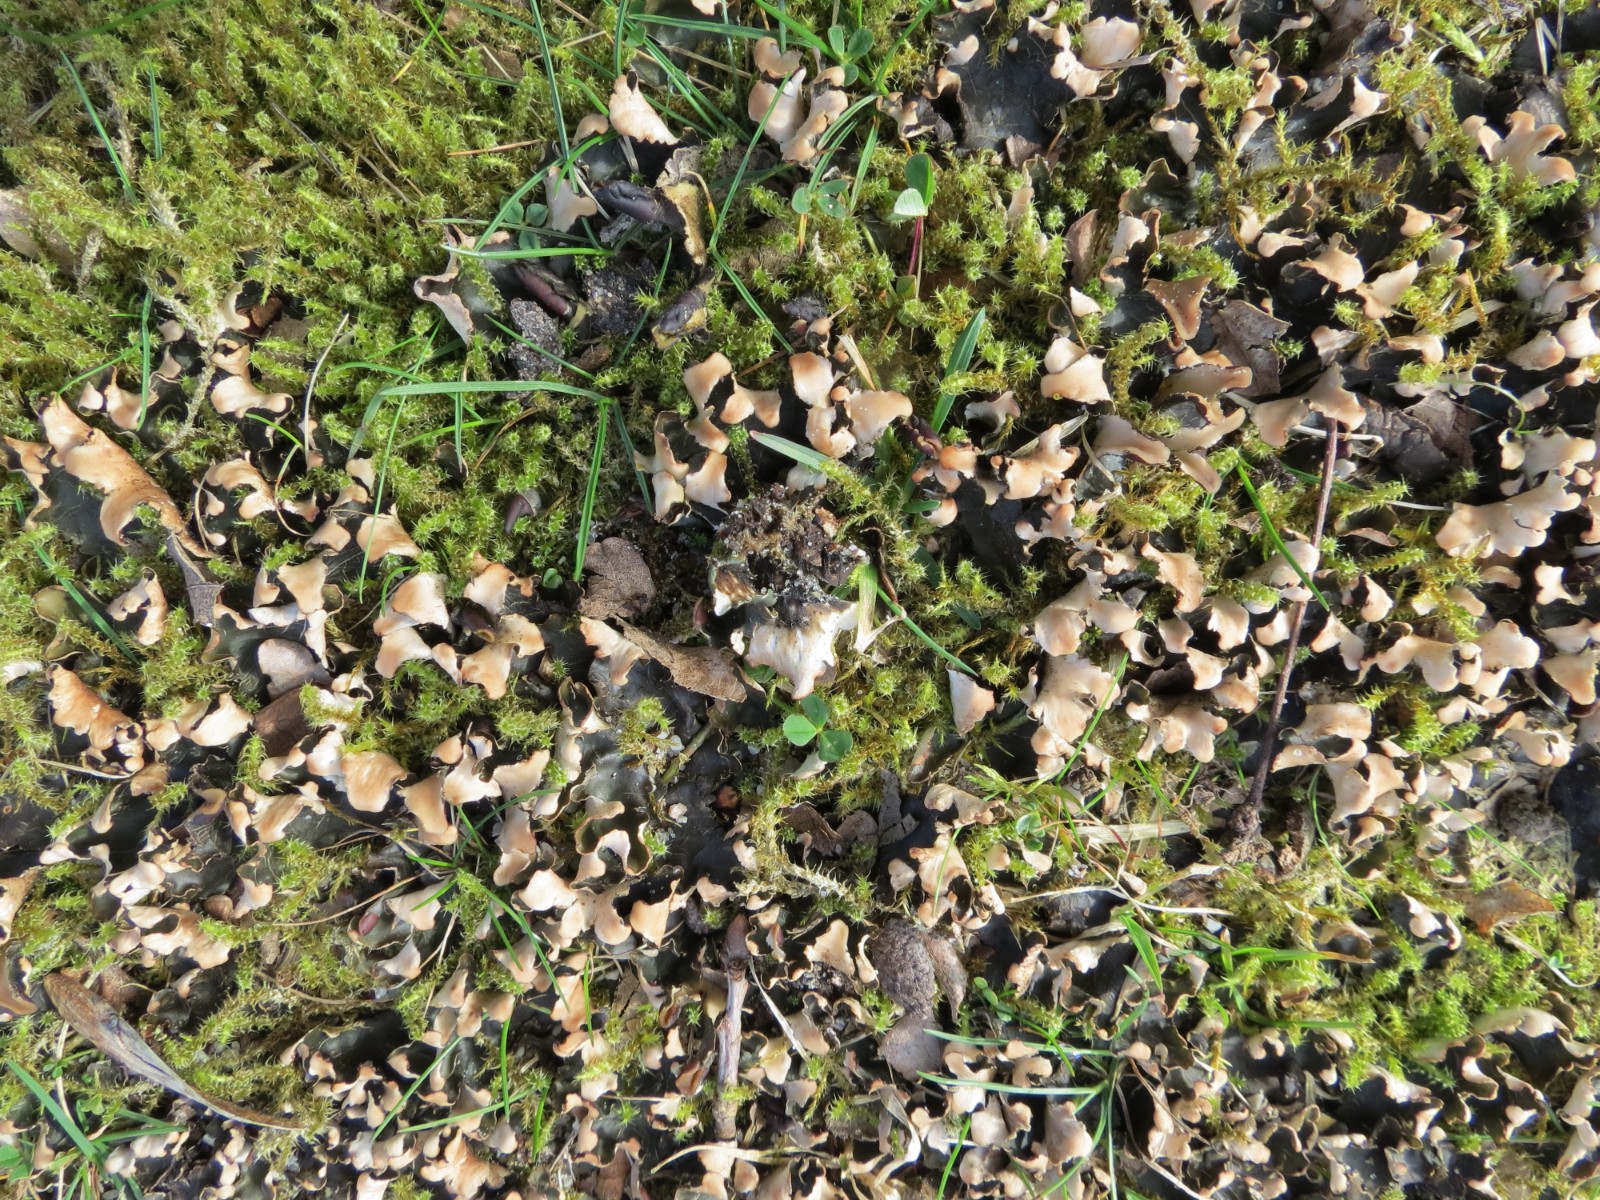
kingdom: Fungi
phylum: Ascomycota
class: Lecanoromycetes
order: Peltigerales
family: Peltigeraceae
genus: Peltigera
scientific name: Peltigera didactyla
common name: liden skjoldlav
